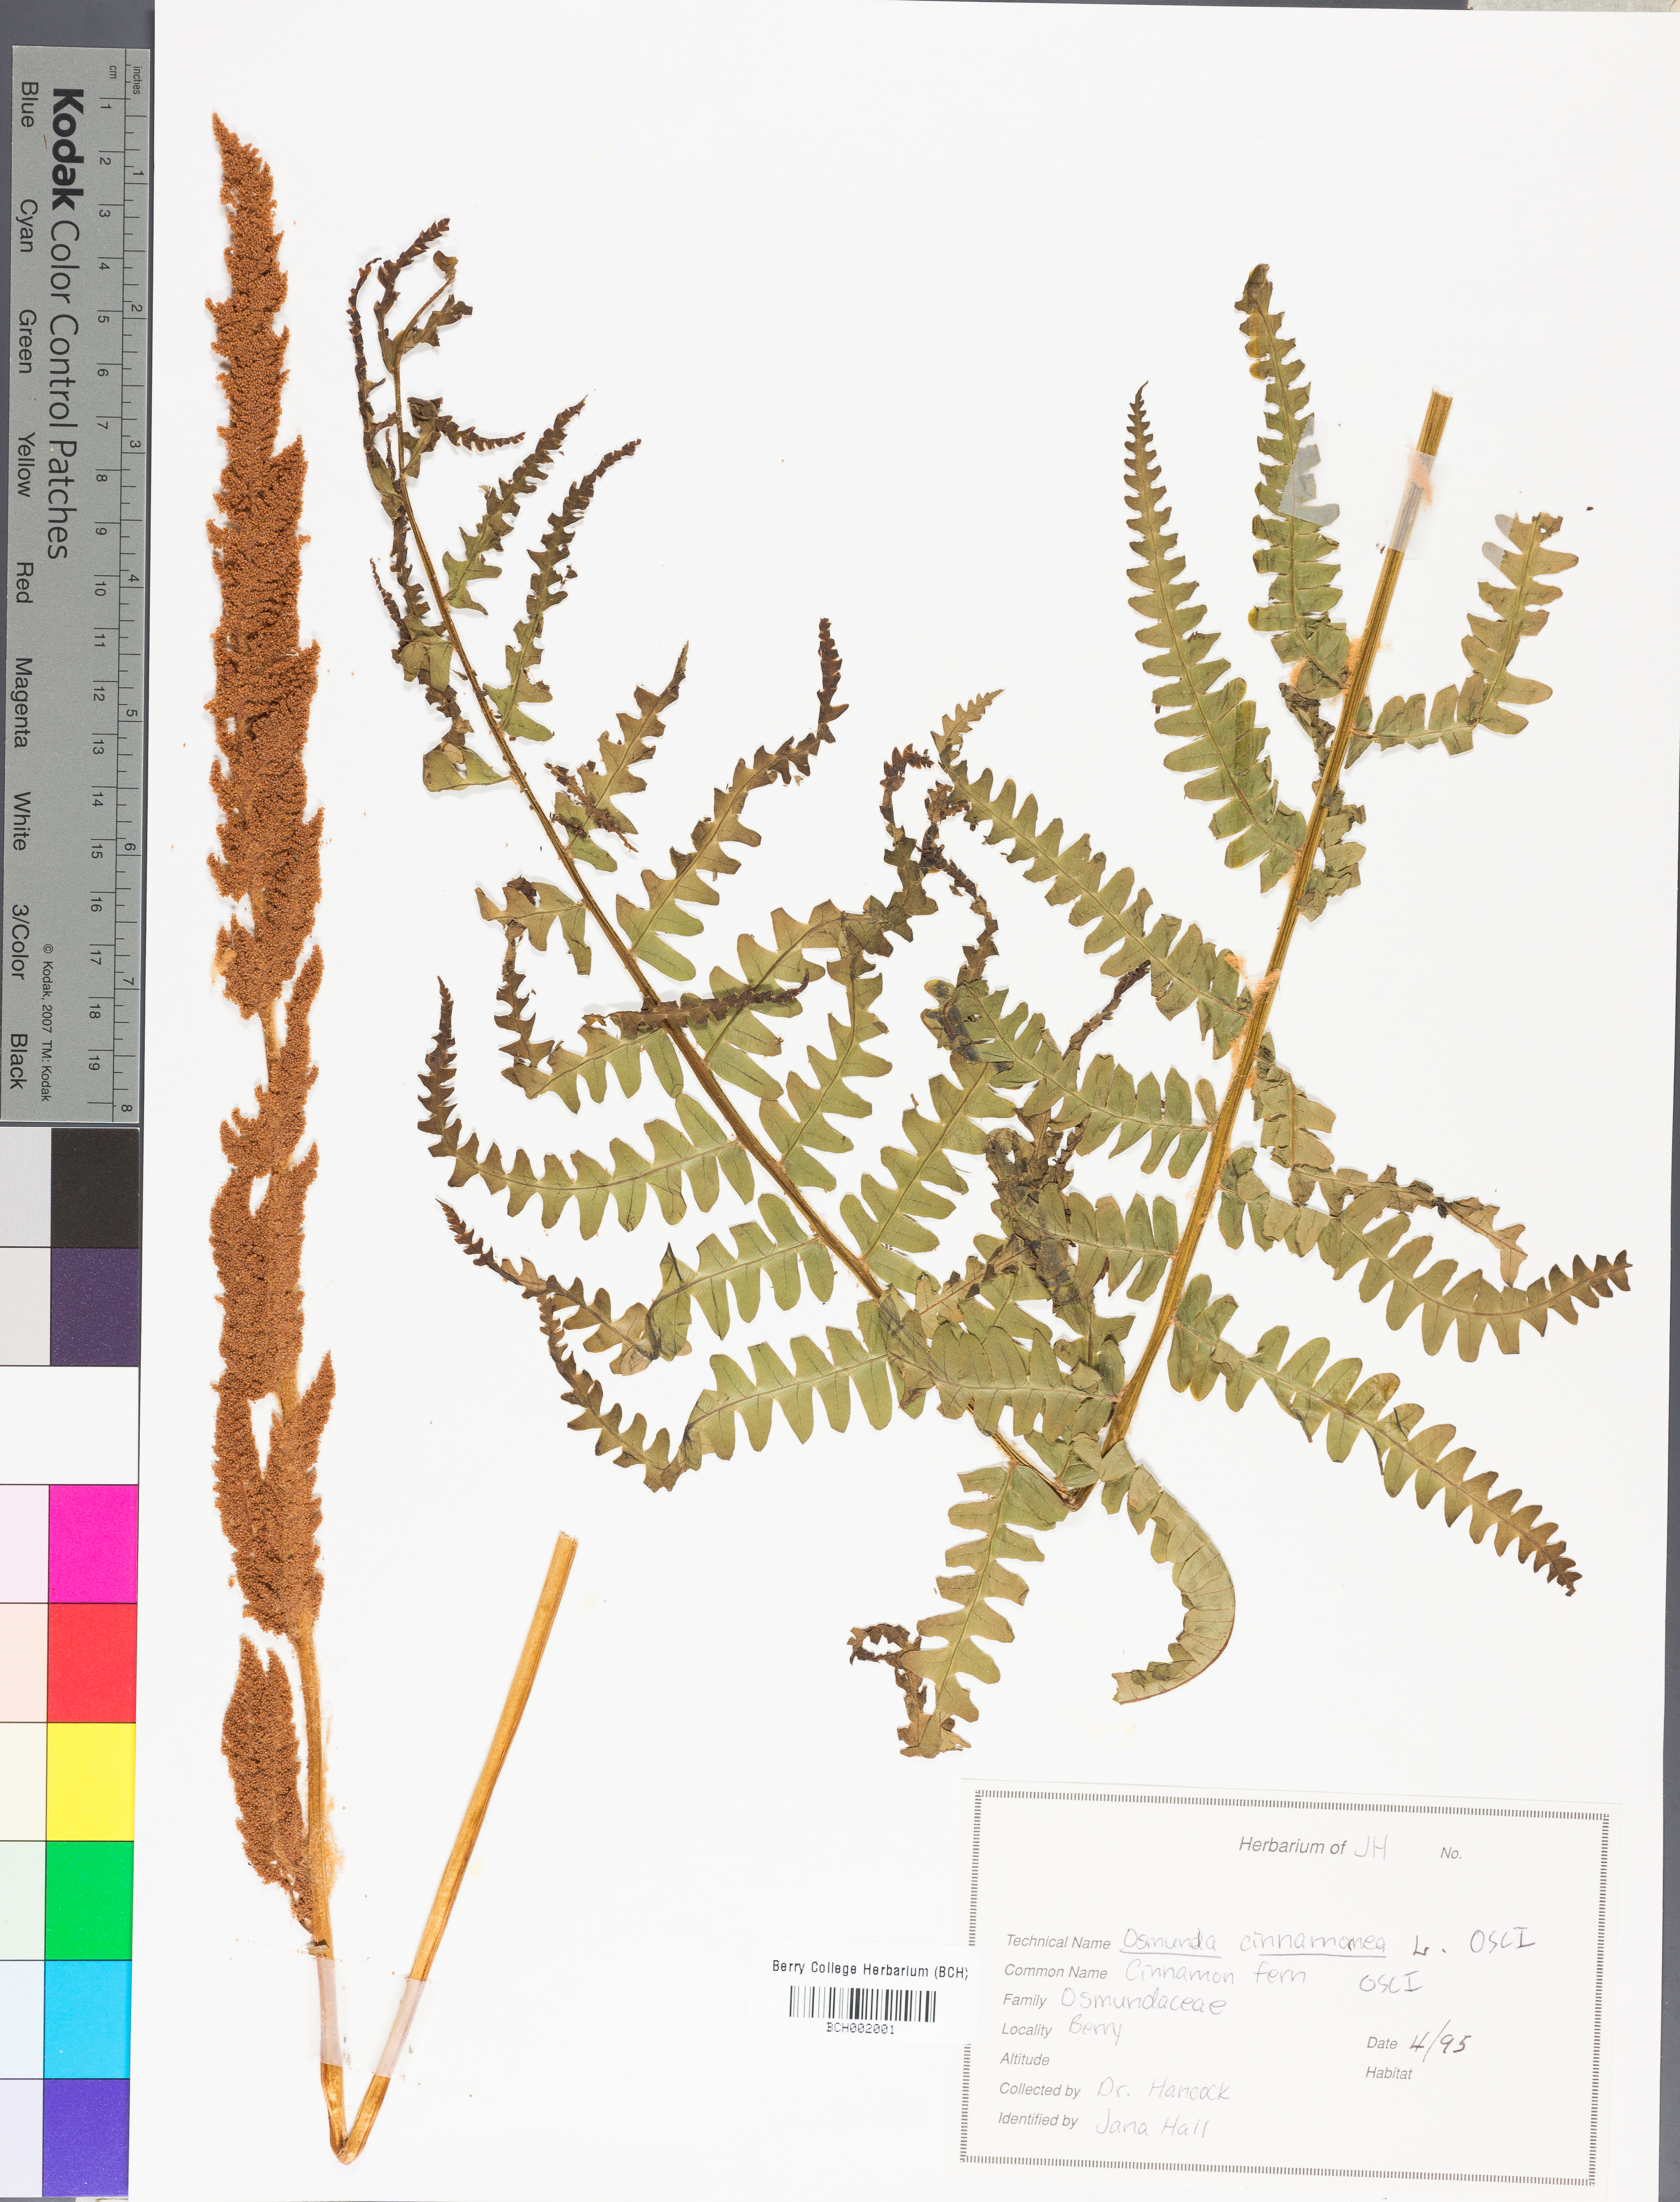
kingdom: Plantae
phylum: Tracheophyta
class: Polypodiopsida
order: Osmundales
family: Osmundaceae
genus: Osmundastrum
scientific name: Osmundastrum cinnamomeum
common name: Cinnamon fern
